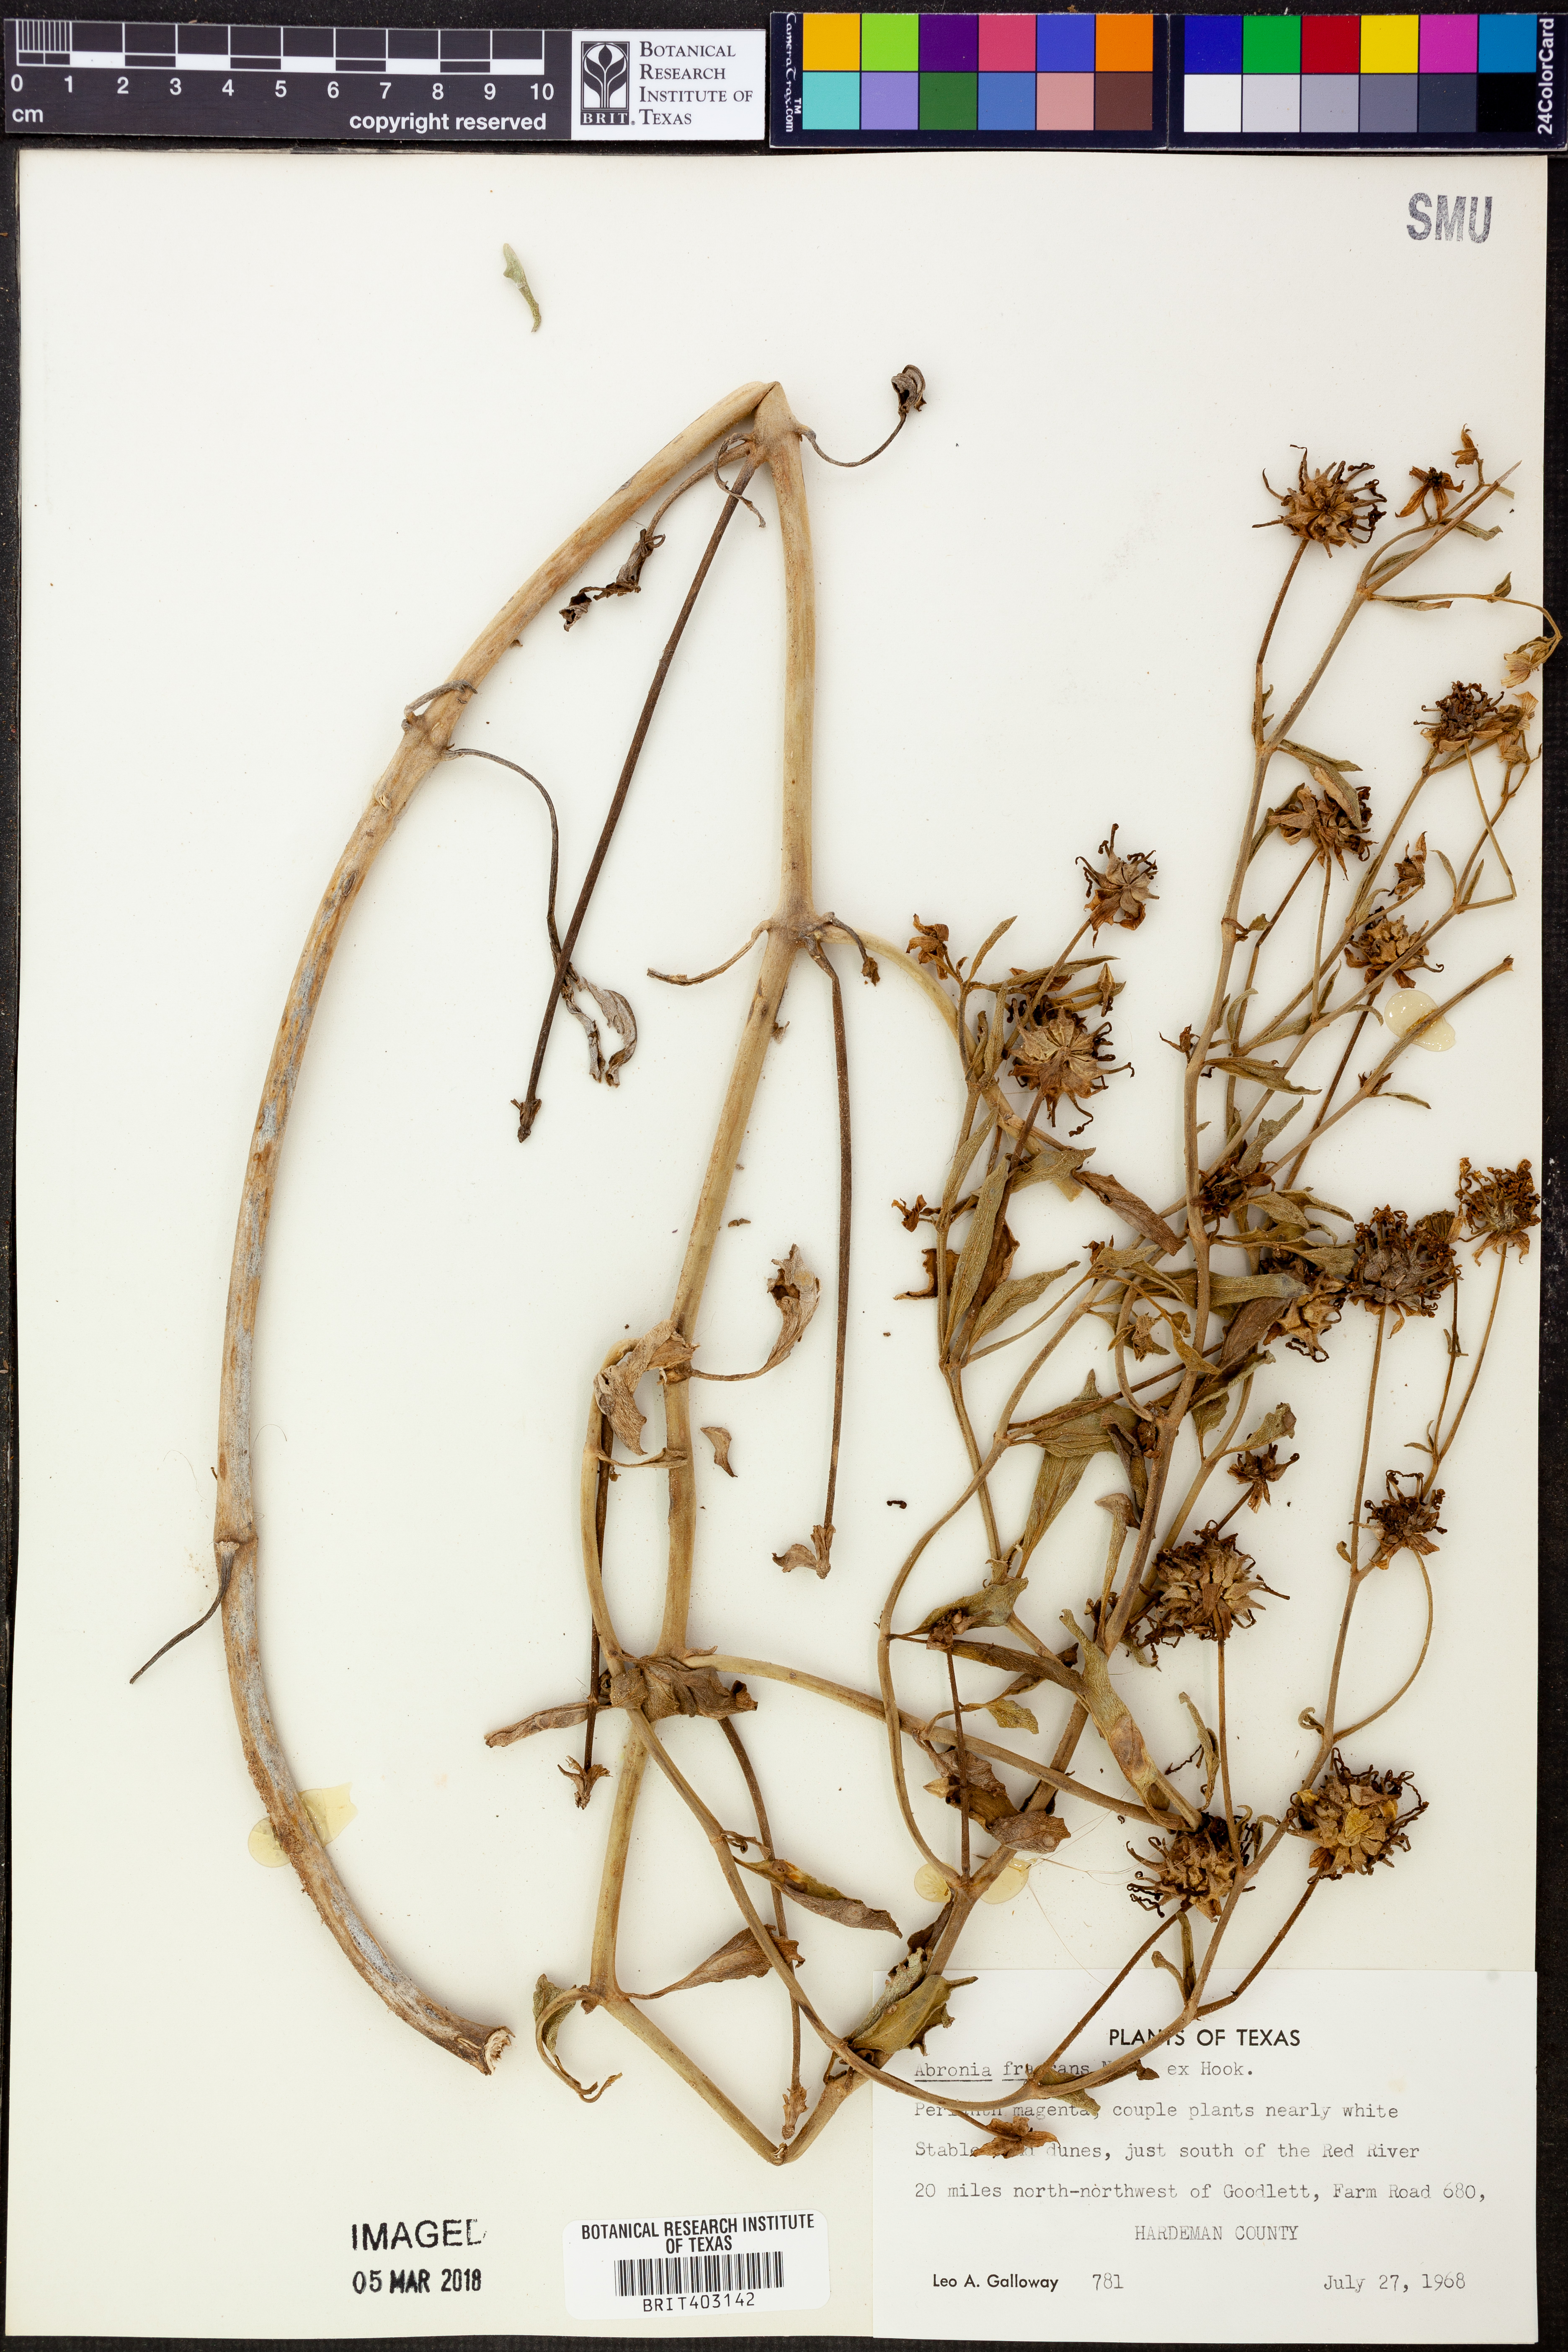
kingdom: Plantae
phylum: Tracheophyta
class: Magnoliopsida
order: Caryophyllales
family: Nyctaginaceae
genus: Abronia
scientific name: Abronia fragrans
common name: Fragrant sand-verbena
